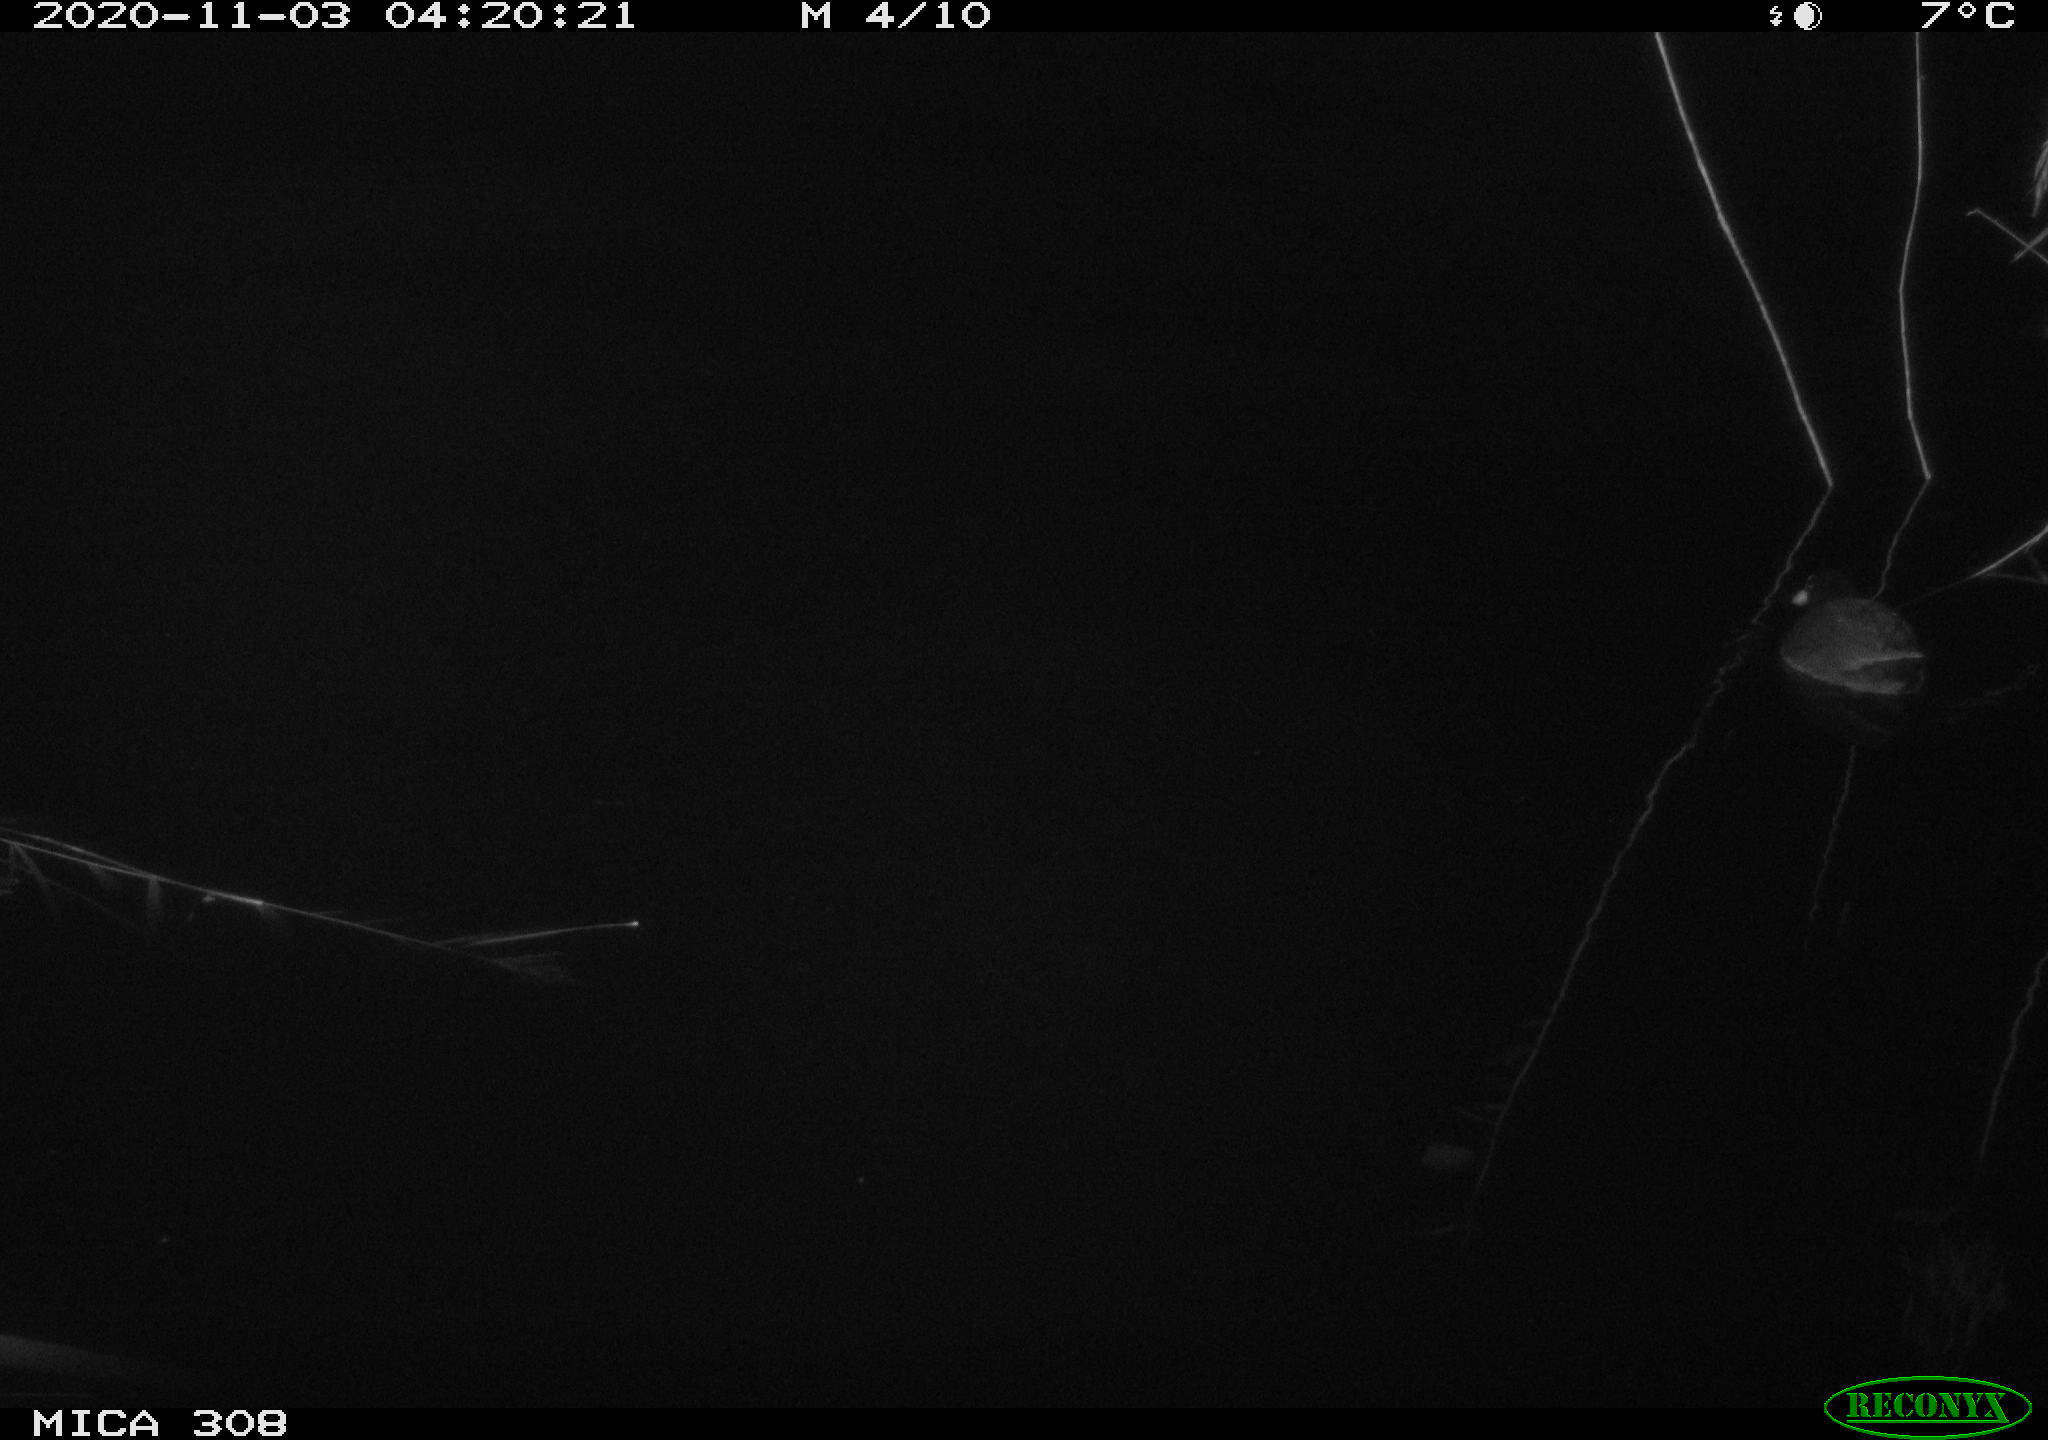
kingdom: Animalia
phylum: Chordata
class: Aves
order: Gruiformes
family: Rallidae
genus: Fulica
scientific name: Fulica atra
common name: Eurasian coot
